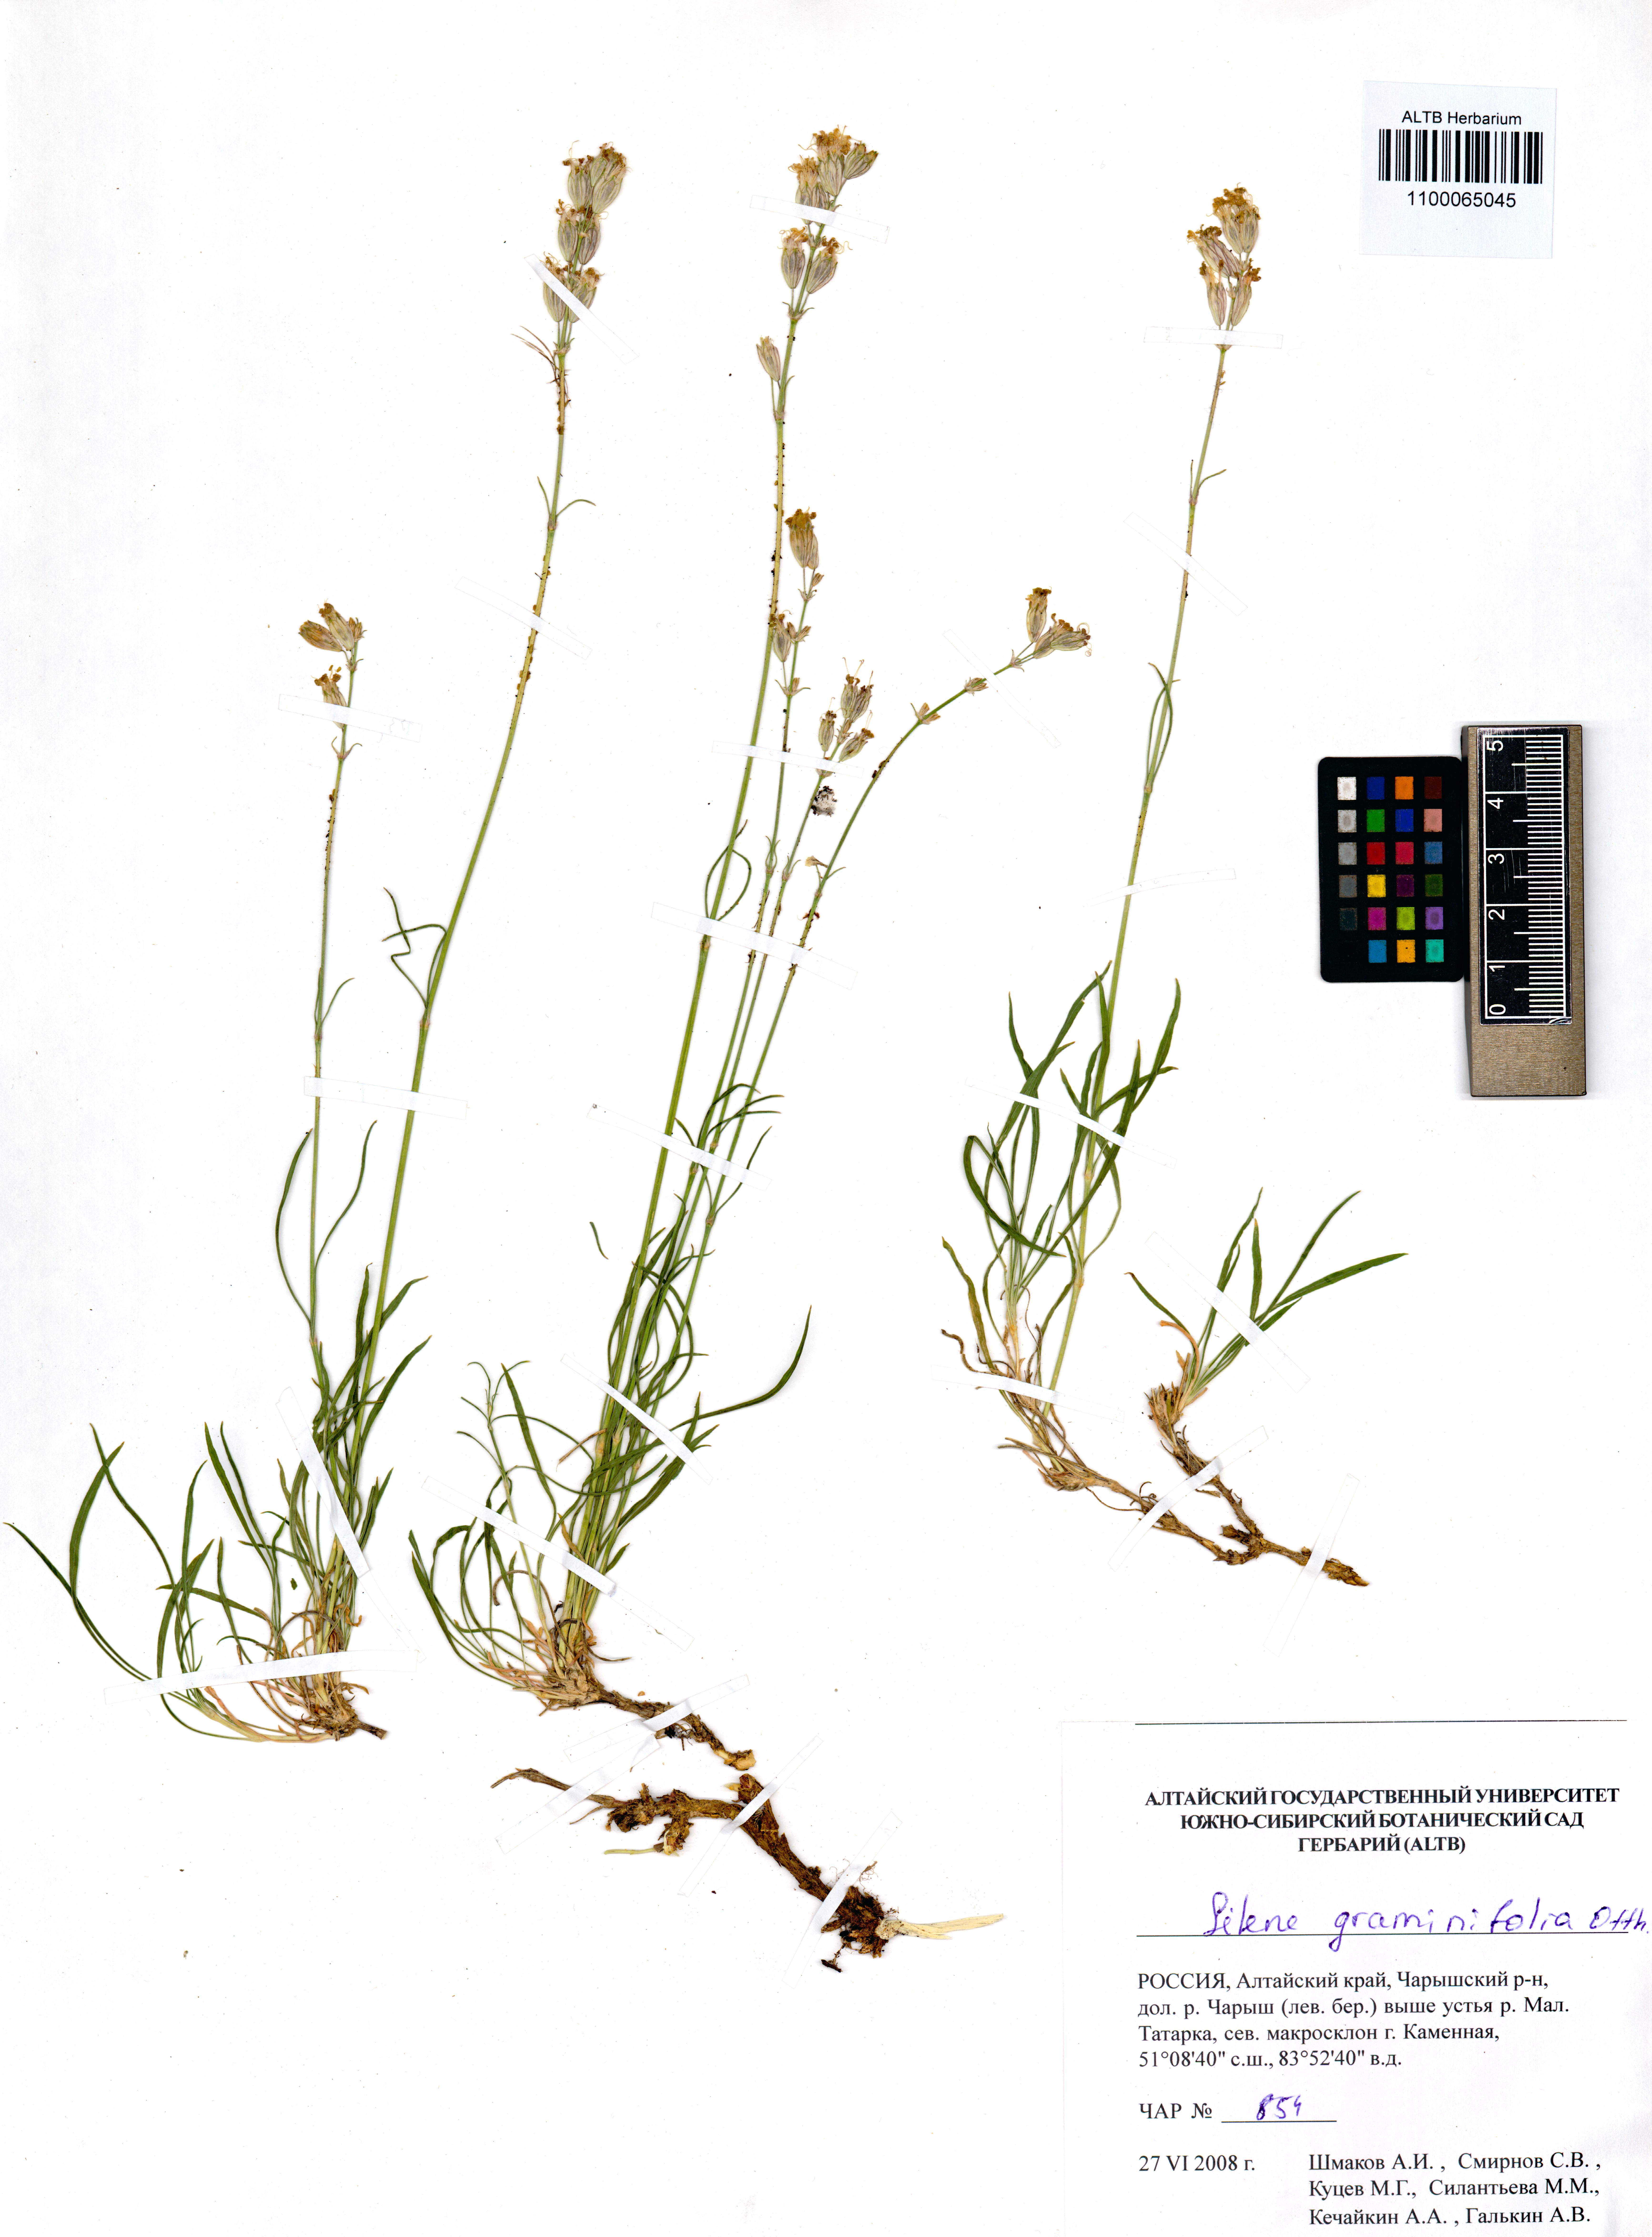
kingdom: Plantae
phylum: Tracheophyta
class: Magnoliopsida
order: Caryophyllales
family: Caryophyllaceae
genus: Silene
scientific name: Silene graminifolia
